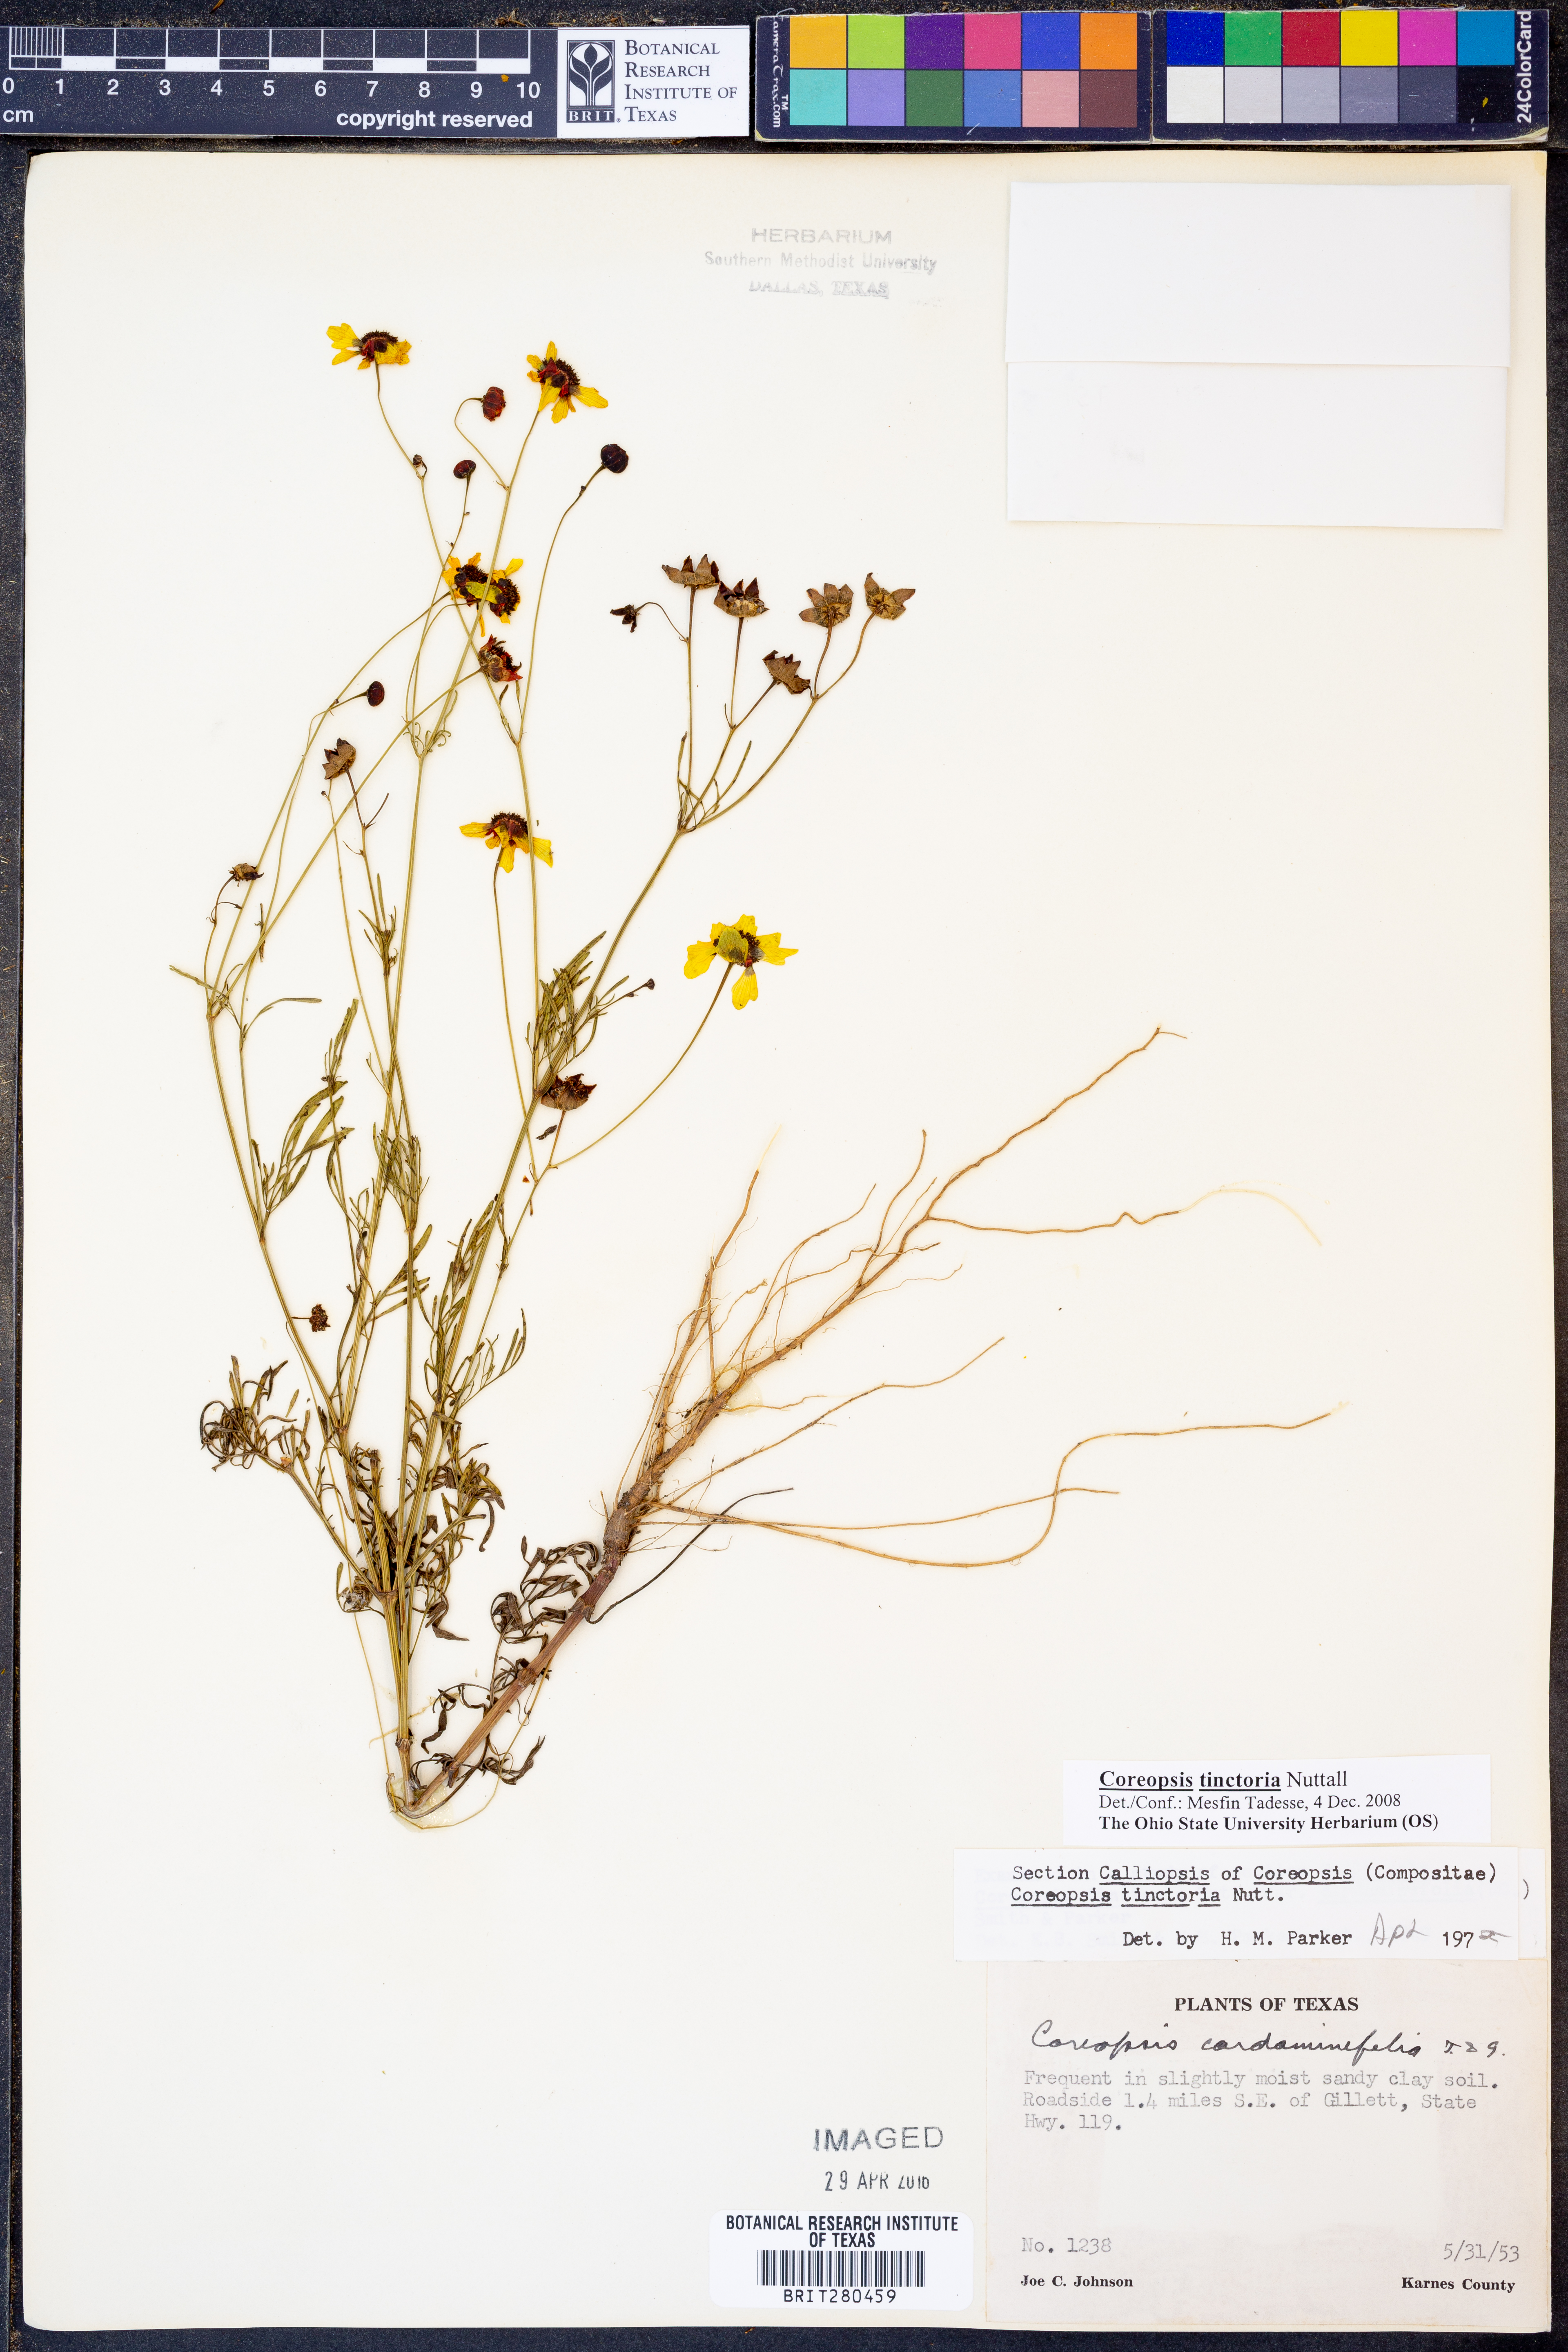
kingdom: Plantae
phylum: Tracheophyta
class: Magnoliopsida
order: Asterales
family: Asteraceae
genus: Coreopsis
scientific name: Coreopsis tinctoria
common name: Garden tickseed
